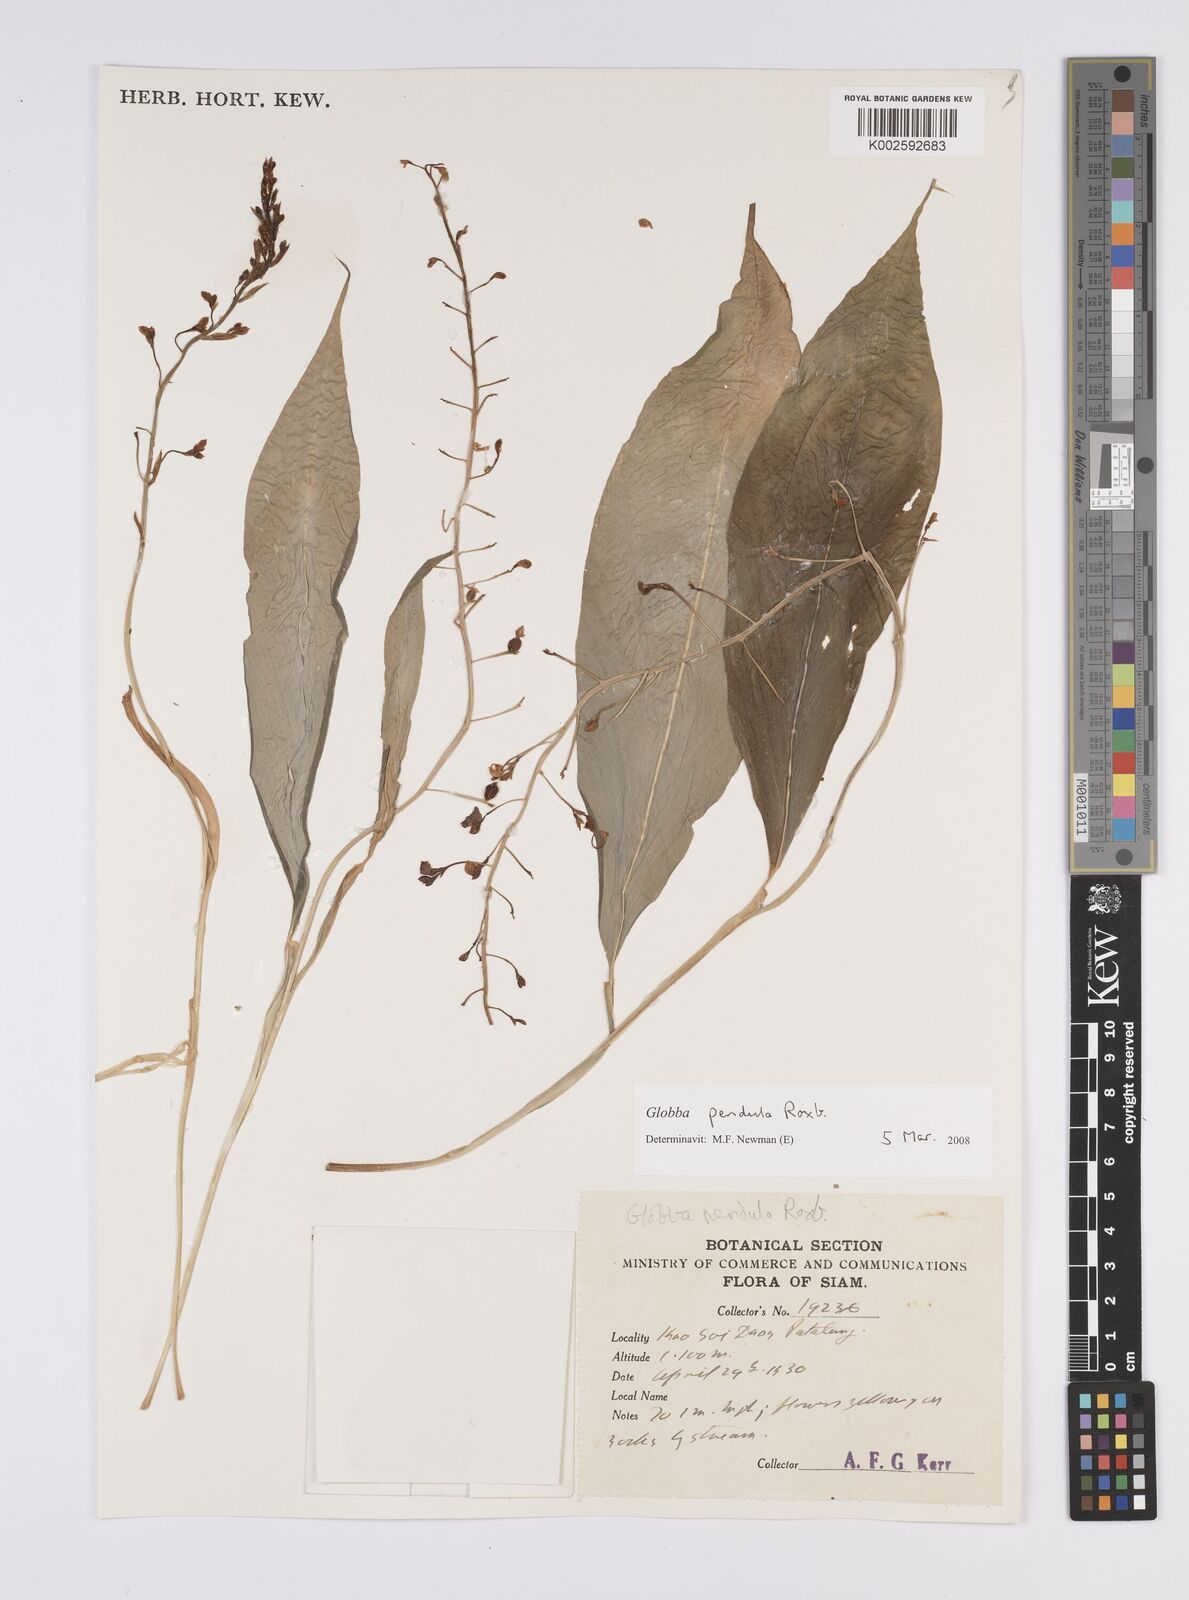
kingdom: Plantae
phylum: Tracheophyta
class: Liliopsida
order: Zingiberales
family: Zingiberaceae
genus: Globba
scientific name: Globba pendula
